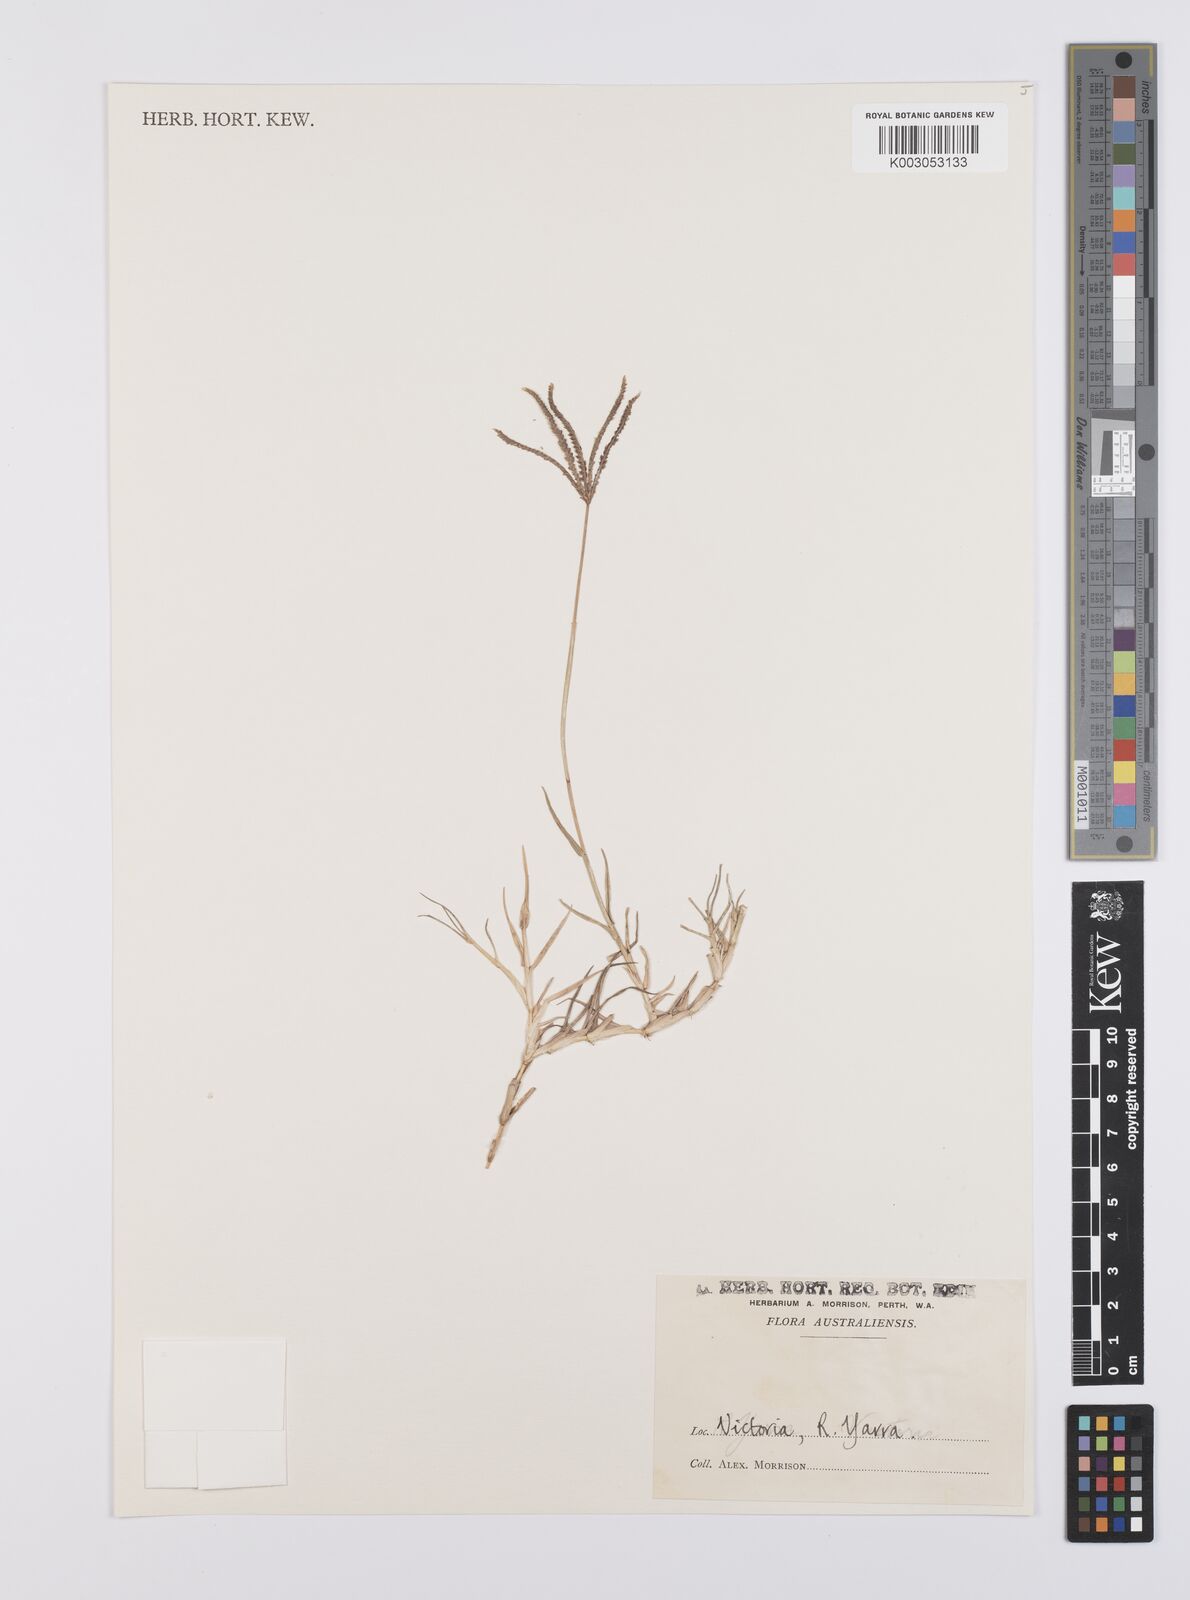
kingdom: Plantae
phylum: Tracheophyta
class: Liliopsida
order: Poales
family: Poaceae
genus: Cynodon
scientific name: Cynodon dactylon
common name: Bermuda grass
